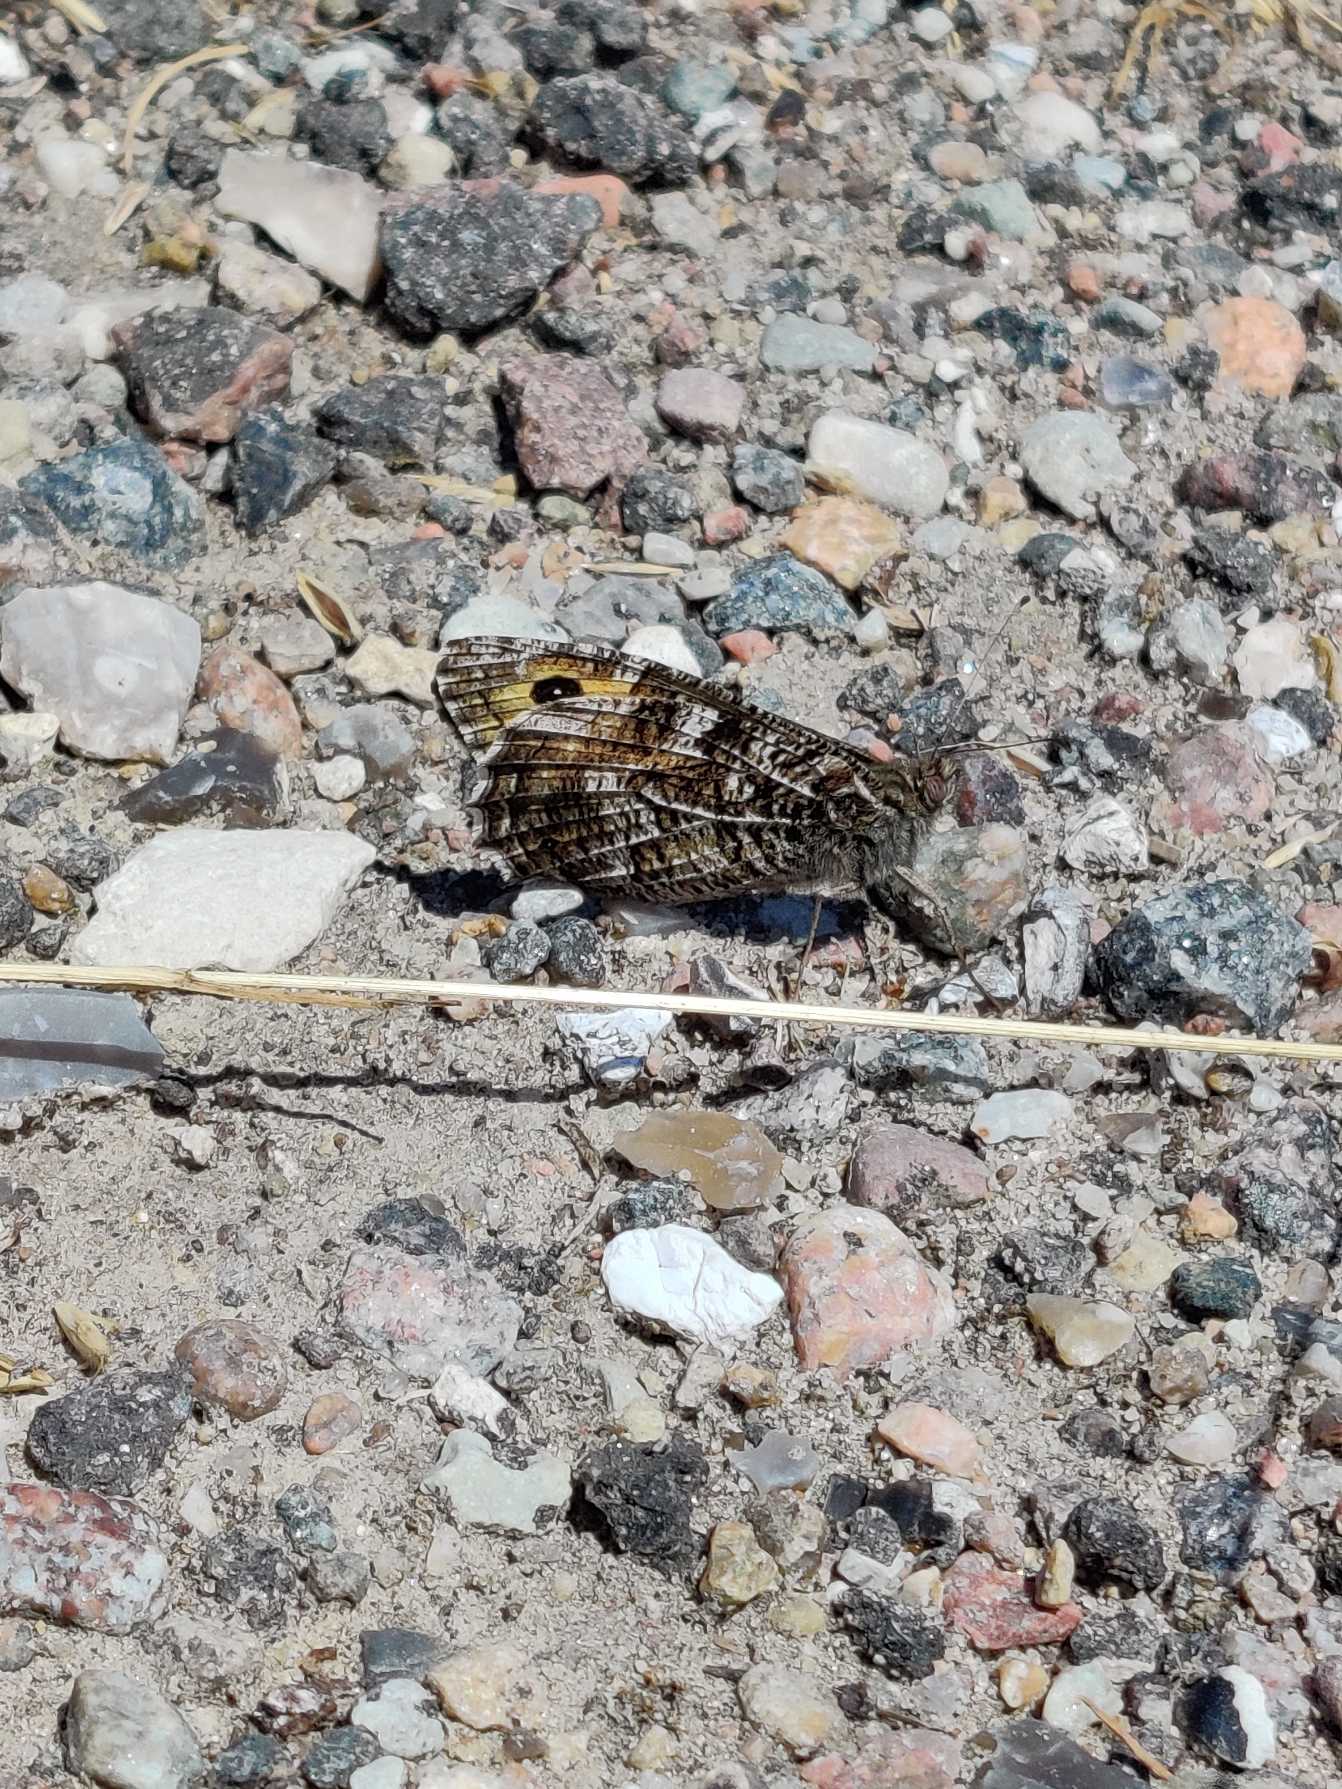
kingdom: Animalia
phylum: Arthropoda
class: Insecta
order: Lepidoptera
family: Nymphalidae
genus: Hipparchia
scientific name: Hipparchia semele
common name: Sandrandøje
